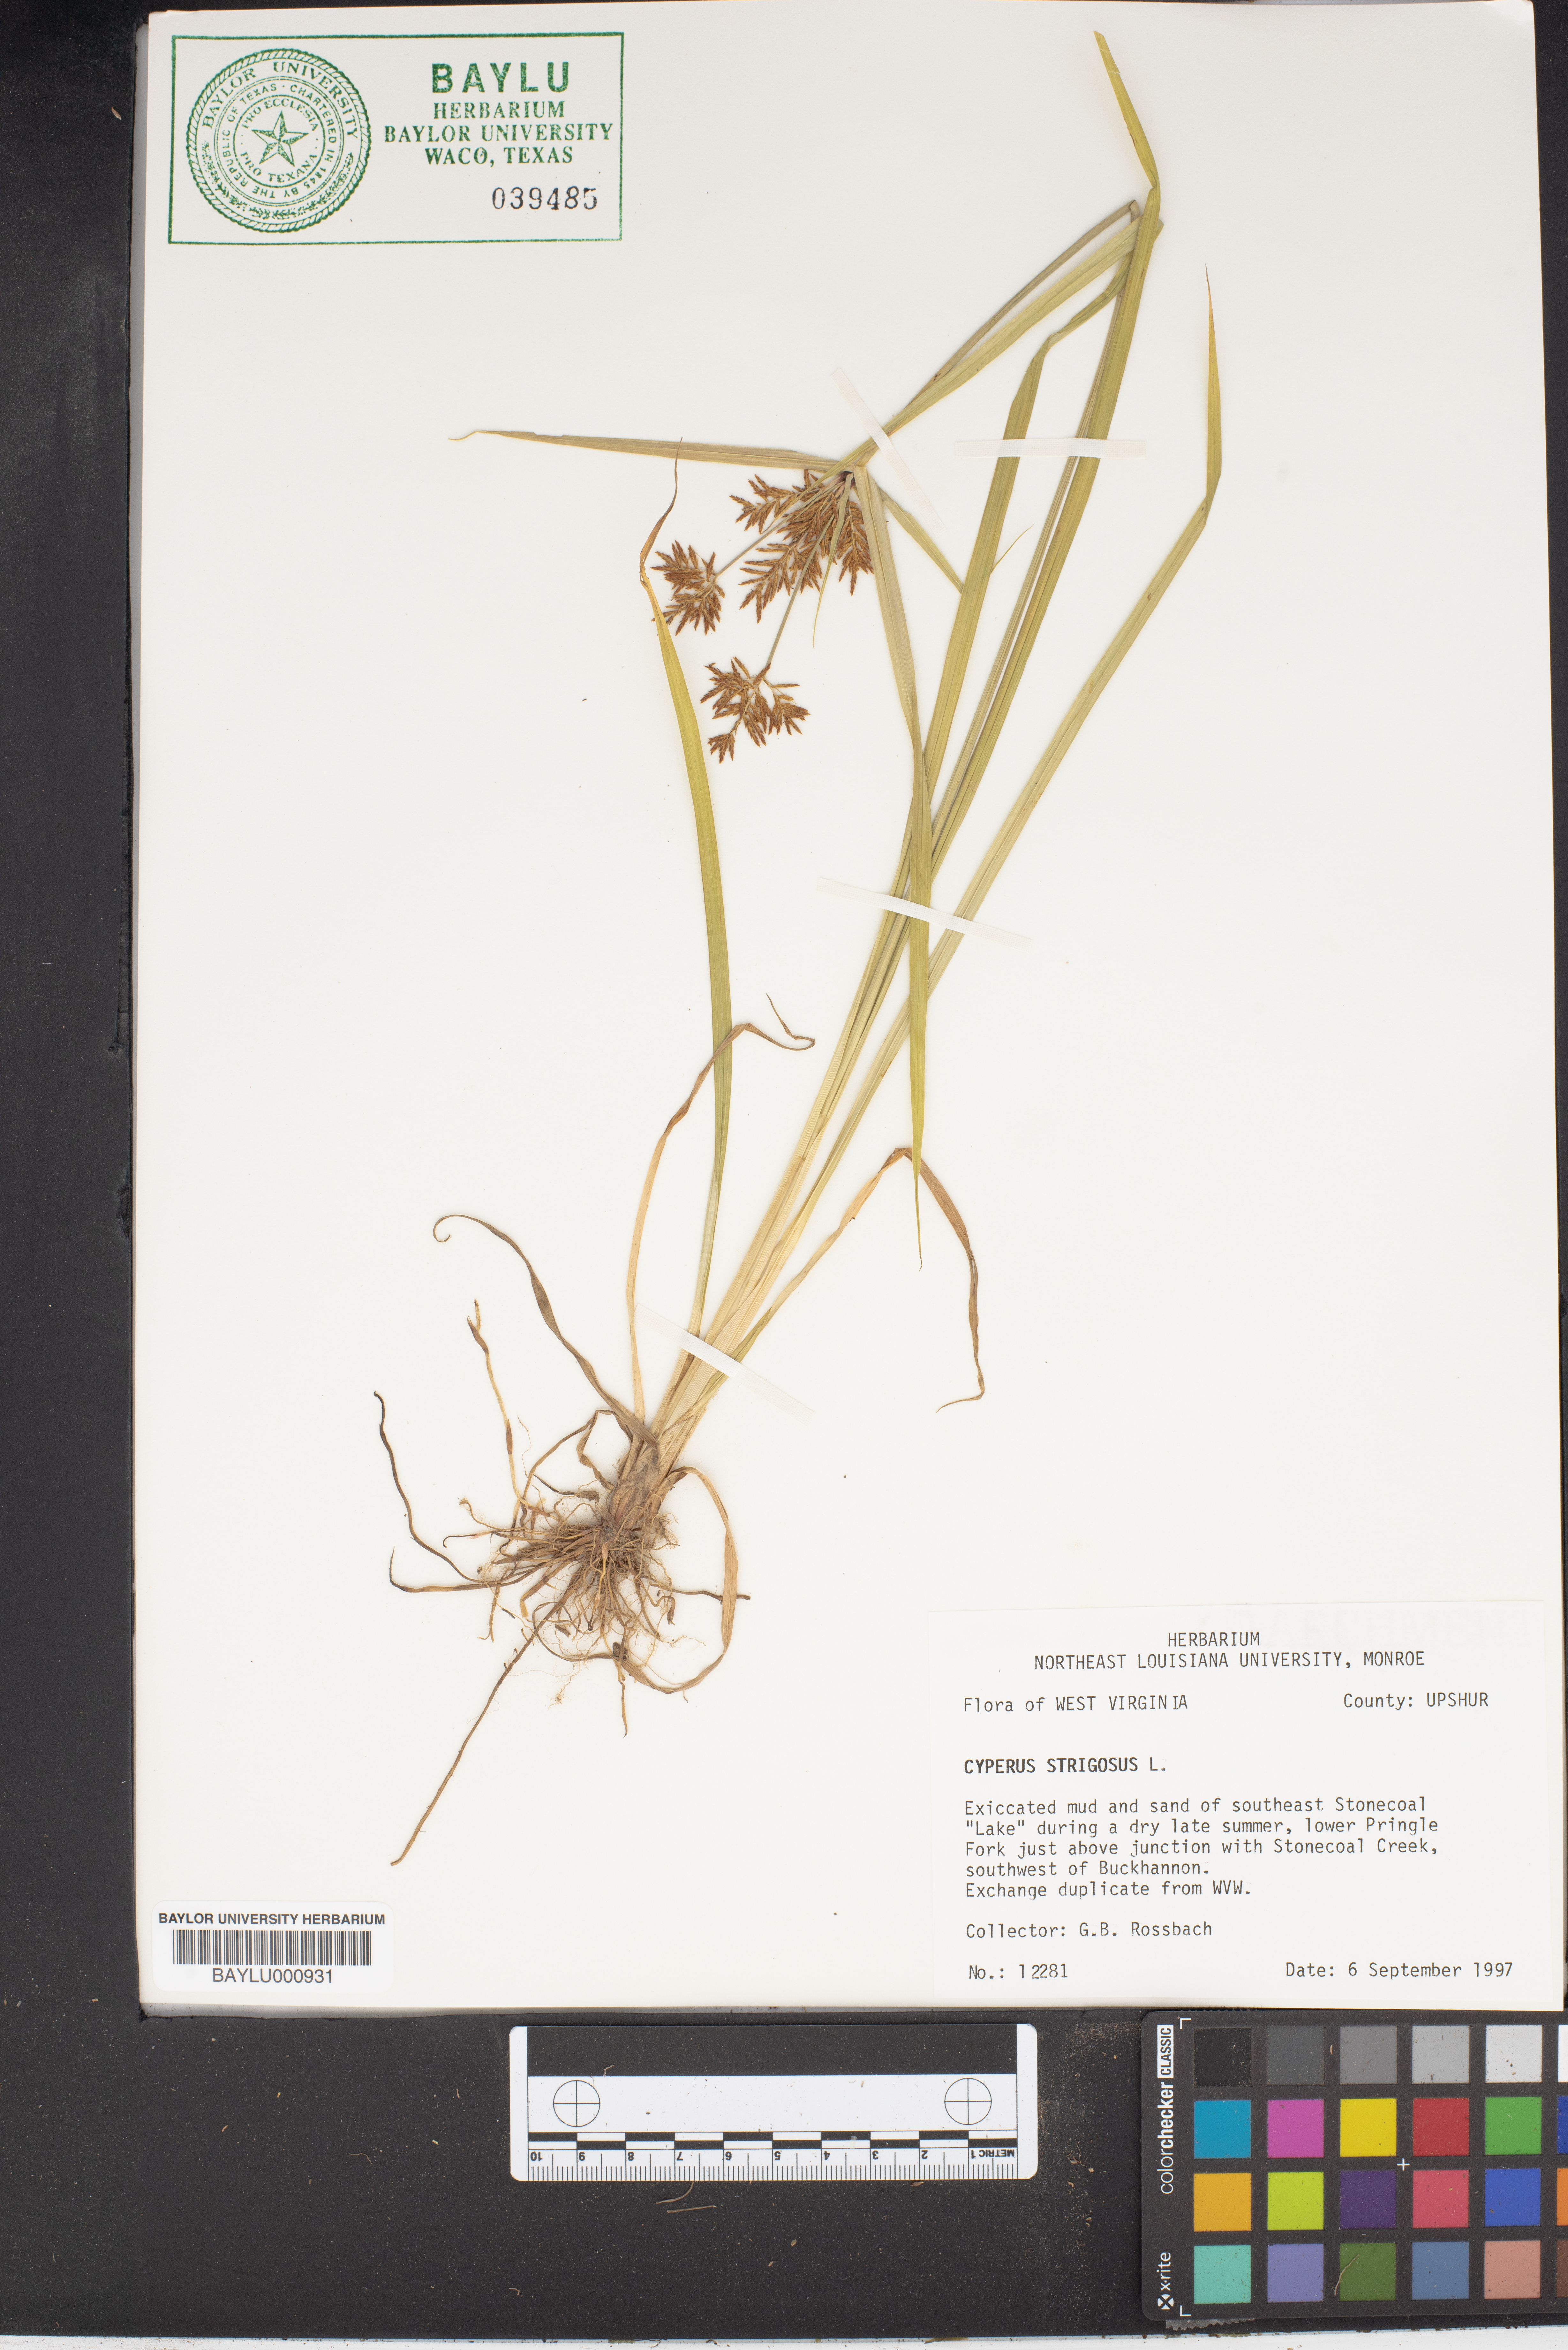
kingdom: Plantae
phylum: Tracheophyta
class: Liliopsida
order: Poales
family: Cyperaceae
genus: Cyperus
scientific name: Cyperus strigosus
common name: False nutsedge
